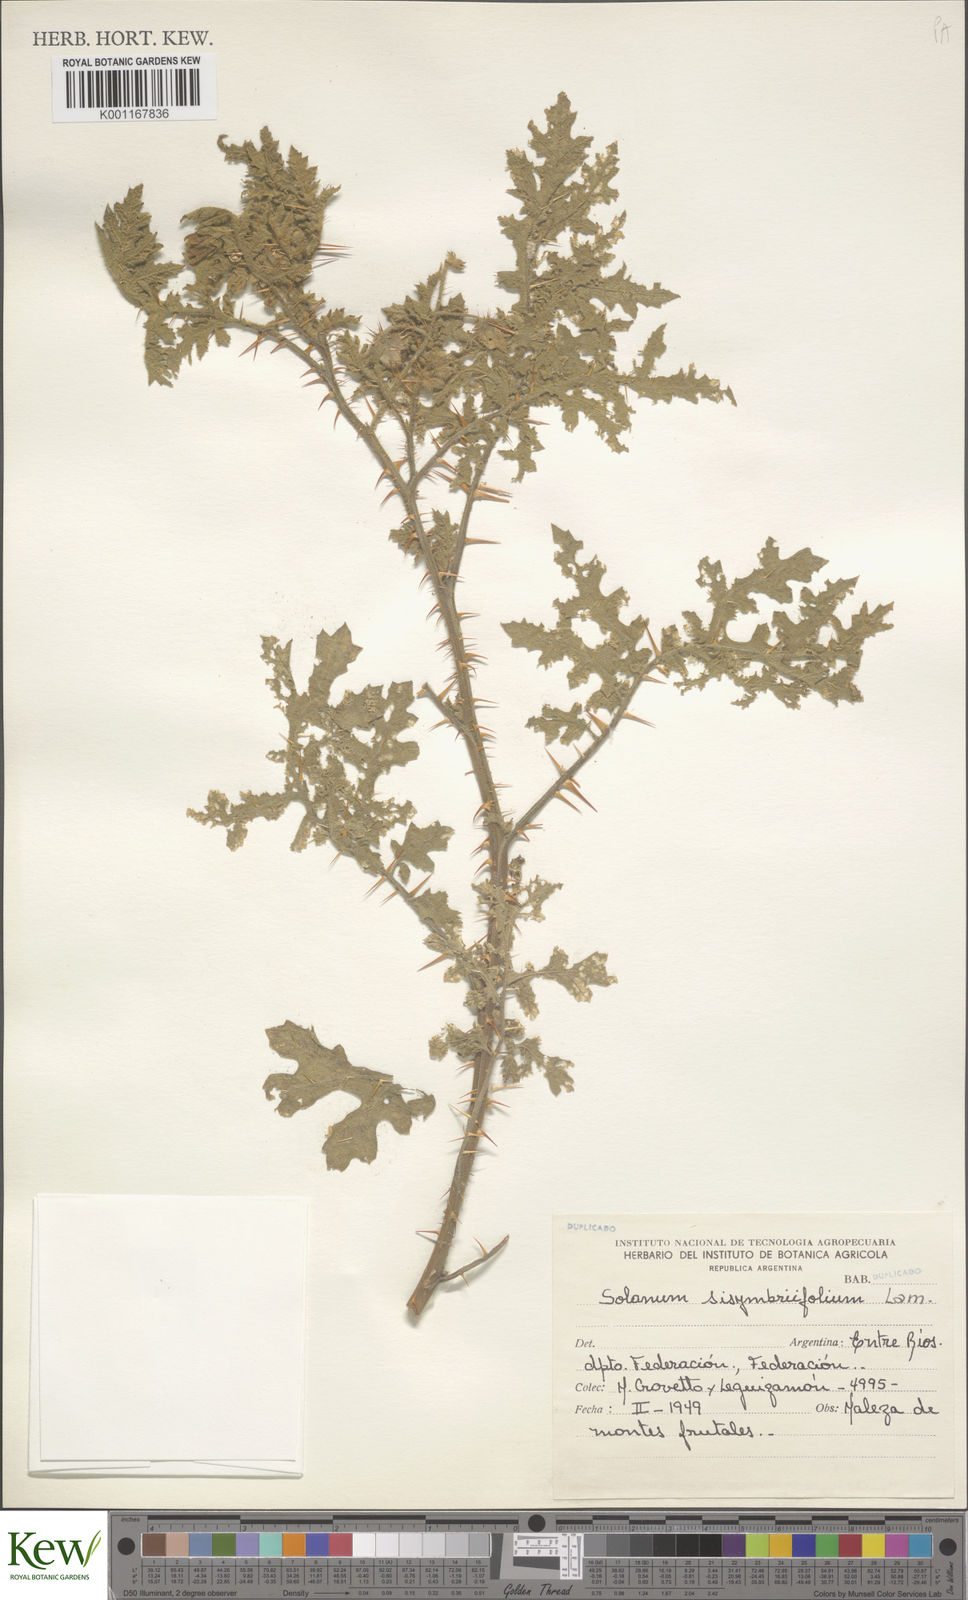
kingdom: Plantae
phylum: Tracheophyta
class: Magnoliopsida
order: Solanales
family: Solanaceae
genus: Solanum
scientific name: Solanum sisymbriifolium
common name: Red buffalo-bur
